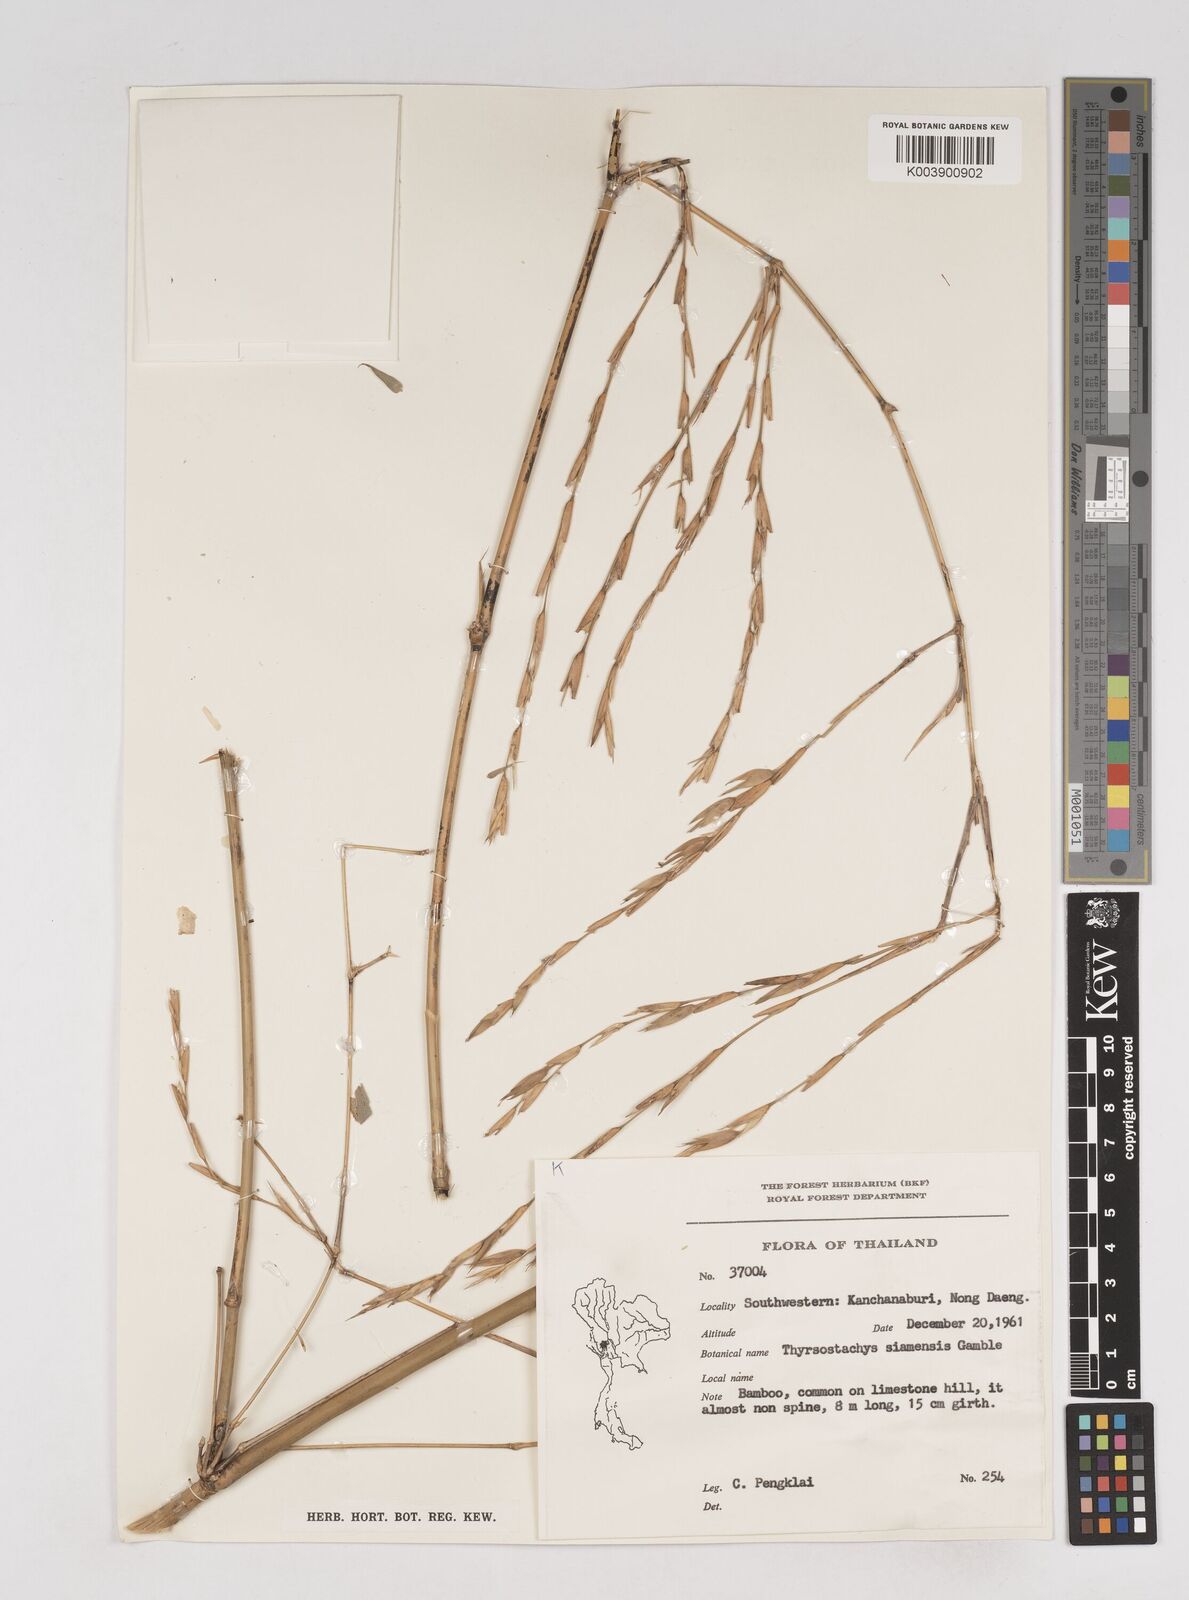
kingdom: Plantae
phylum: Tracheophyta
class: Liliopsida
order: Poales
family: Poaceae
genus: Thyrsostachys
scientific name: Thyrsostachys siamensis
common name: Thailand bamboo
